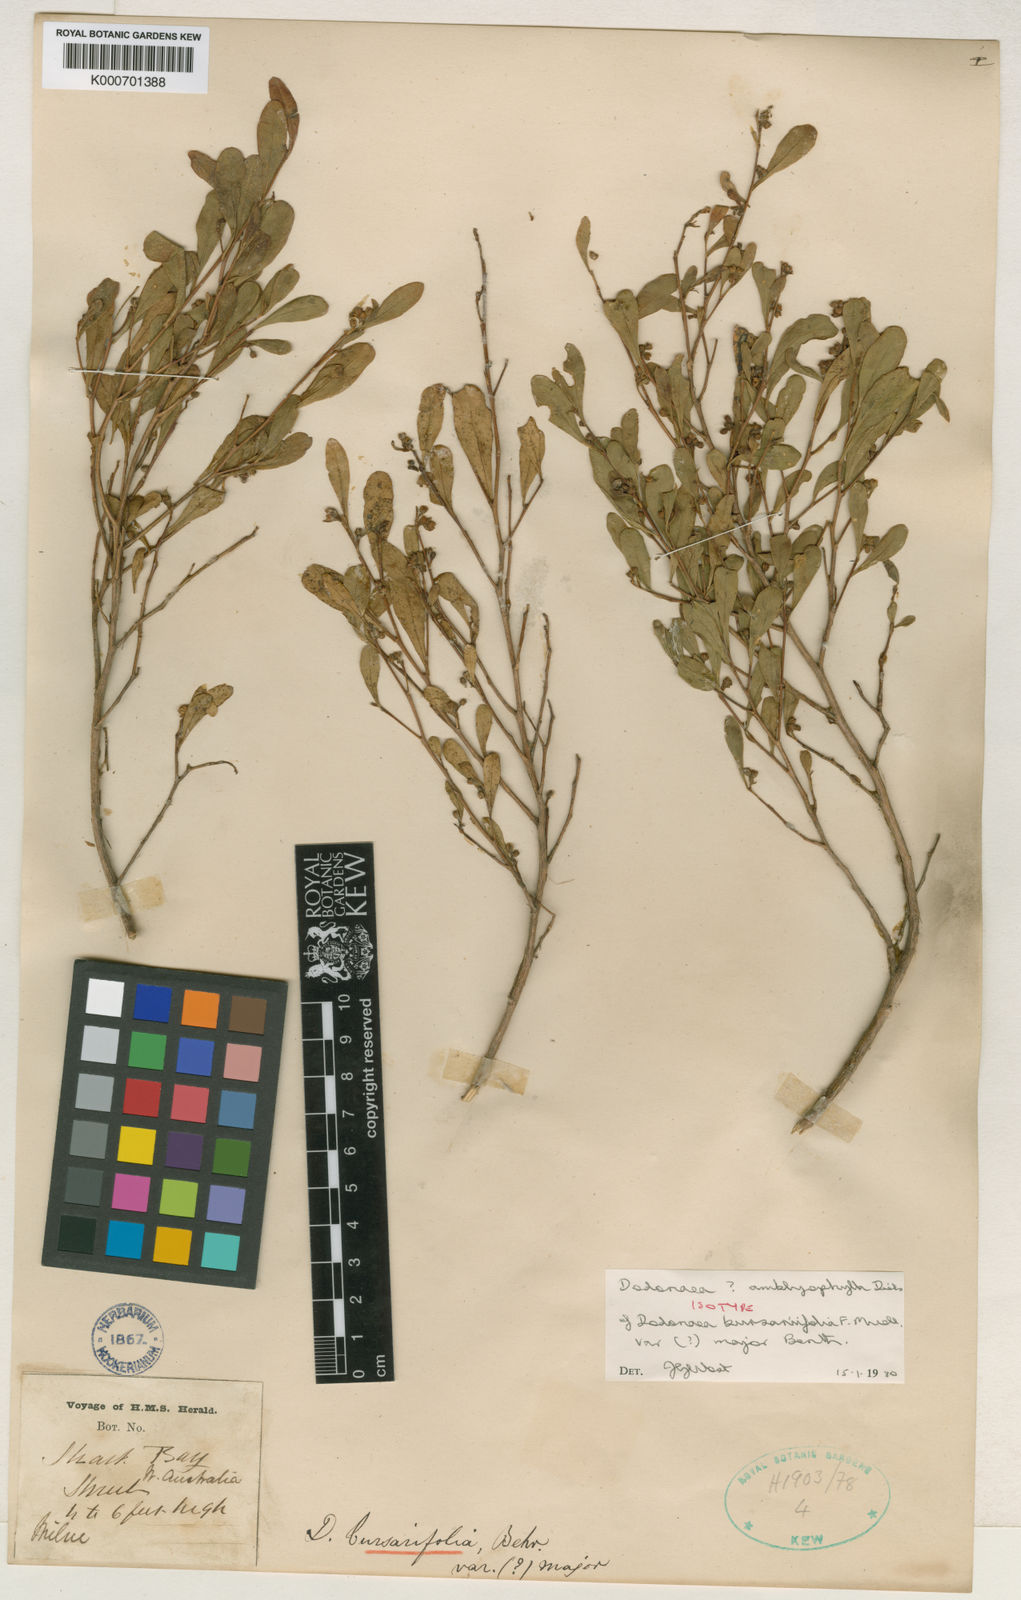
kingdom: Plantae
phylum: Tracheophyta
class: Magnoliopsida
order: Sapindales
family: Sapindaceae
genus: Dodonaea
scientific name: Dodonaea amblyophylla
